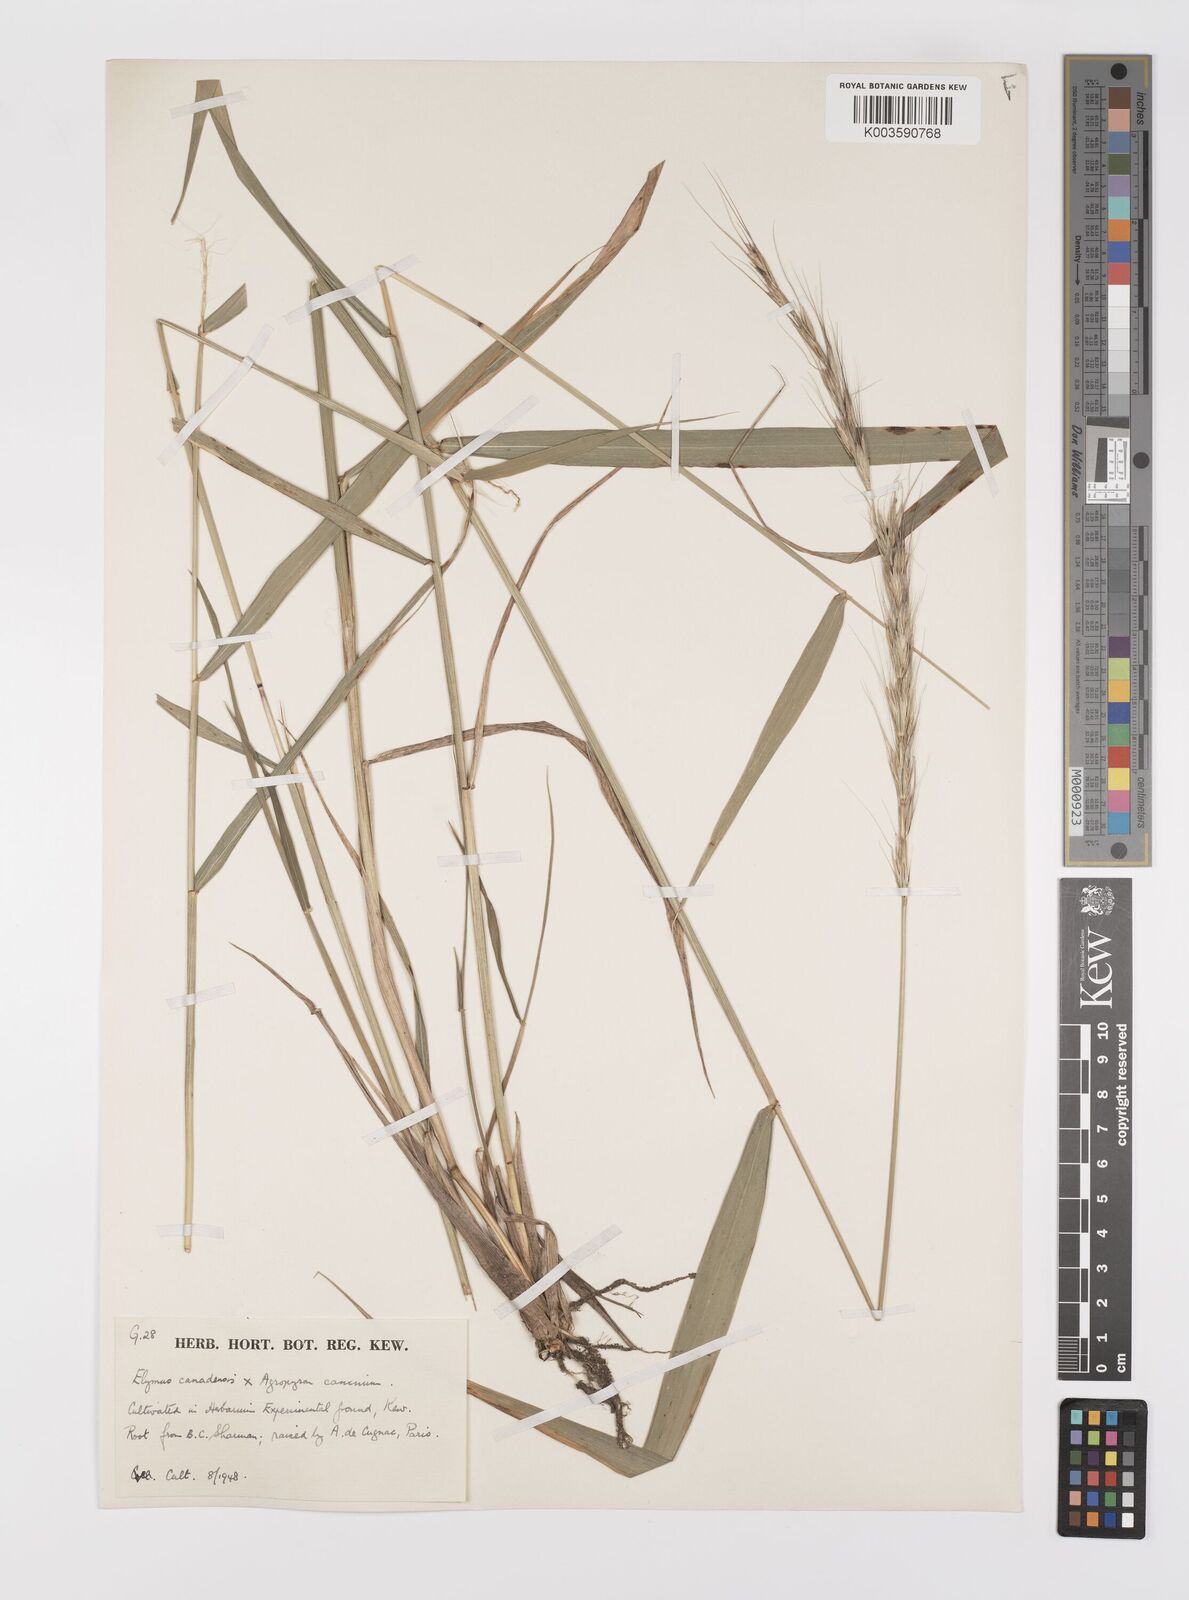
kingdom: Plantae
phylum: Tracheophyta
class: Liliopsida
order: Poales
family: Poaceae
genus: Elymus
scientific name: Elymus canadensis
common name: Canada wild rye
